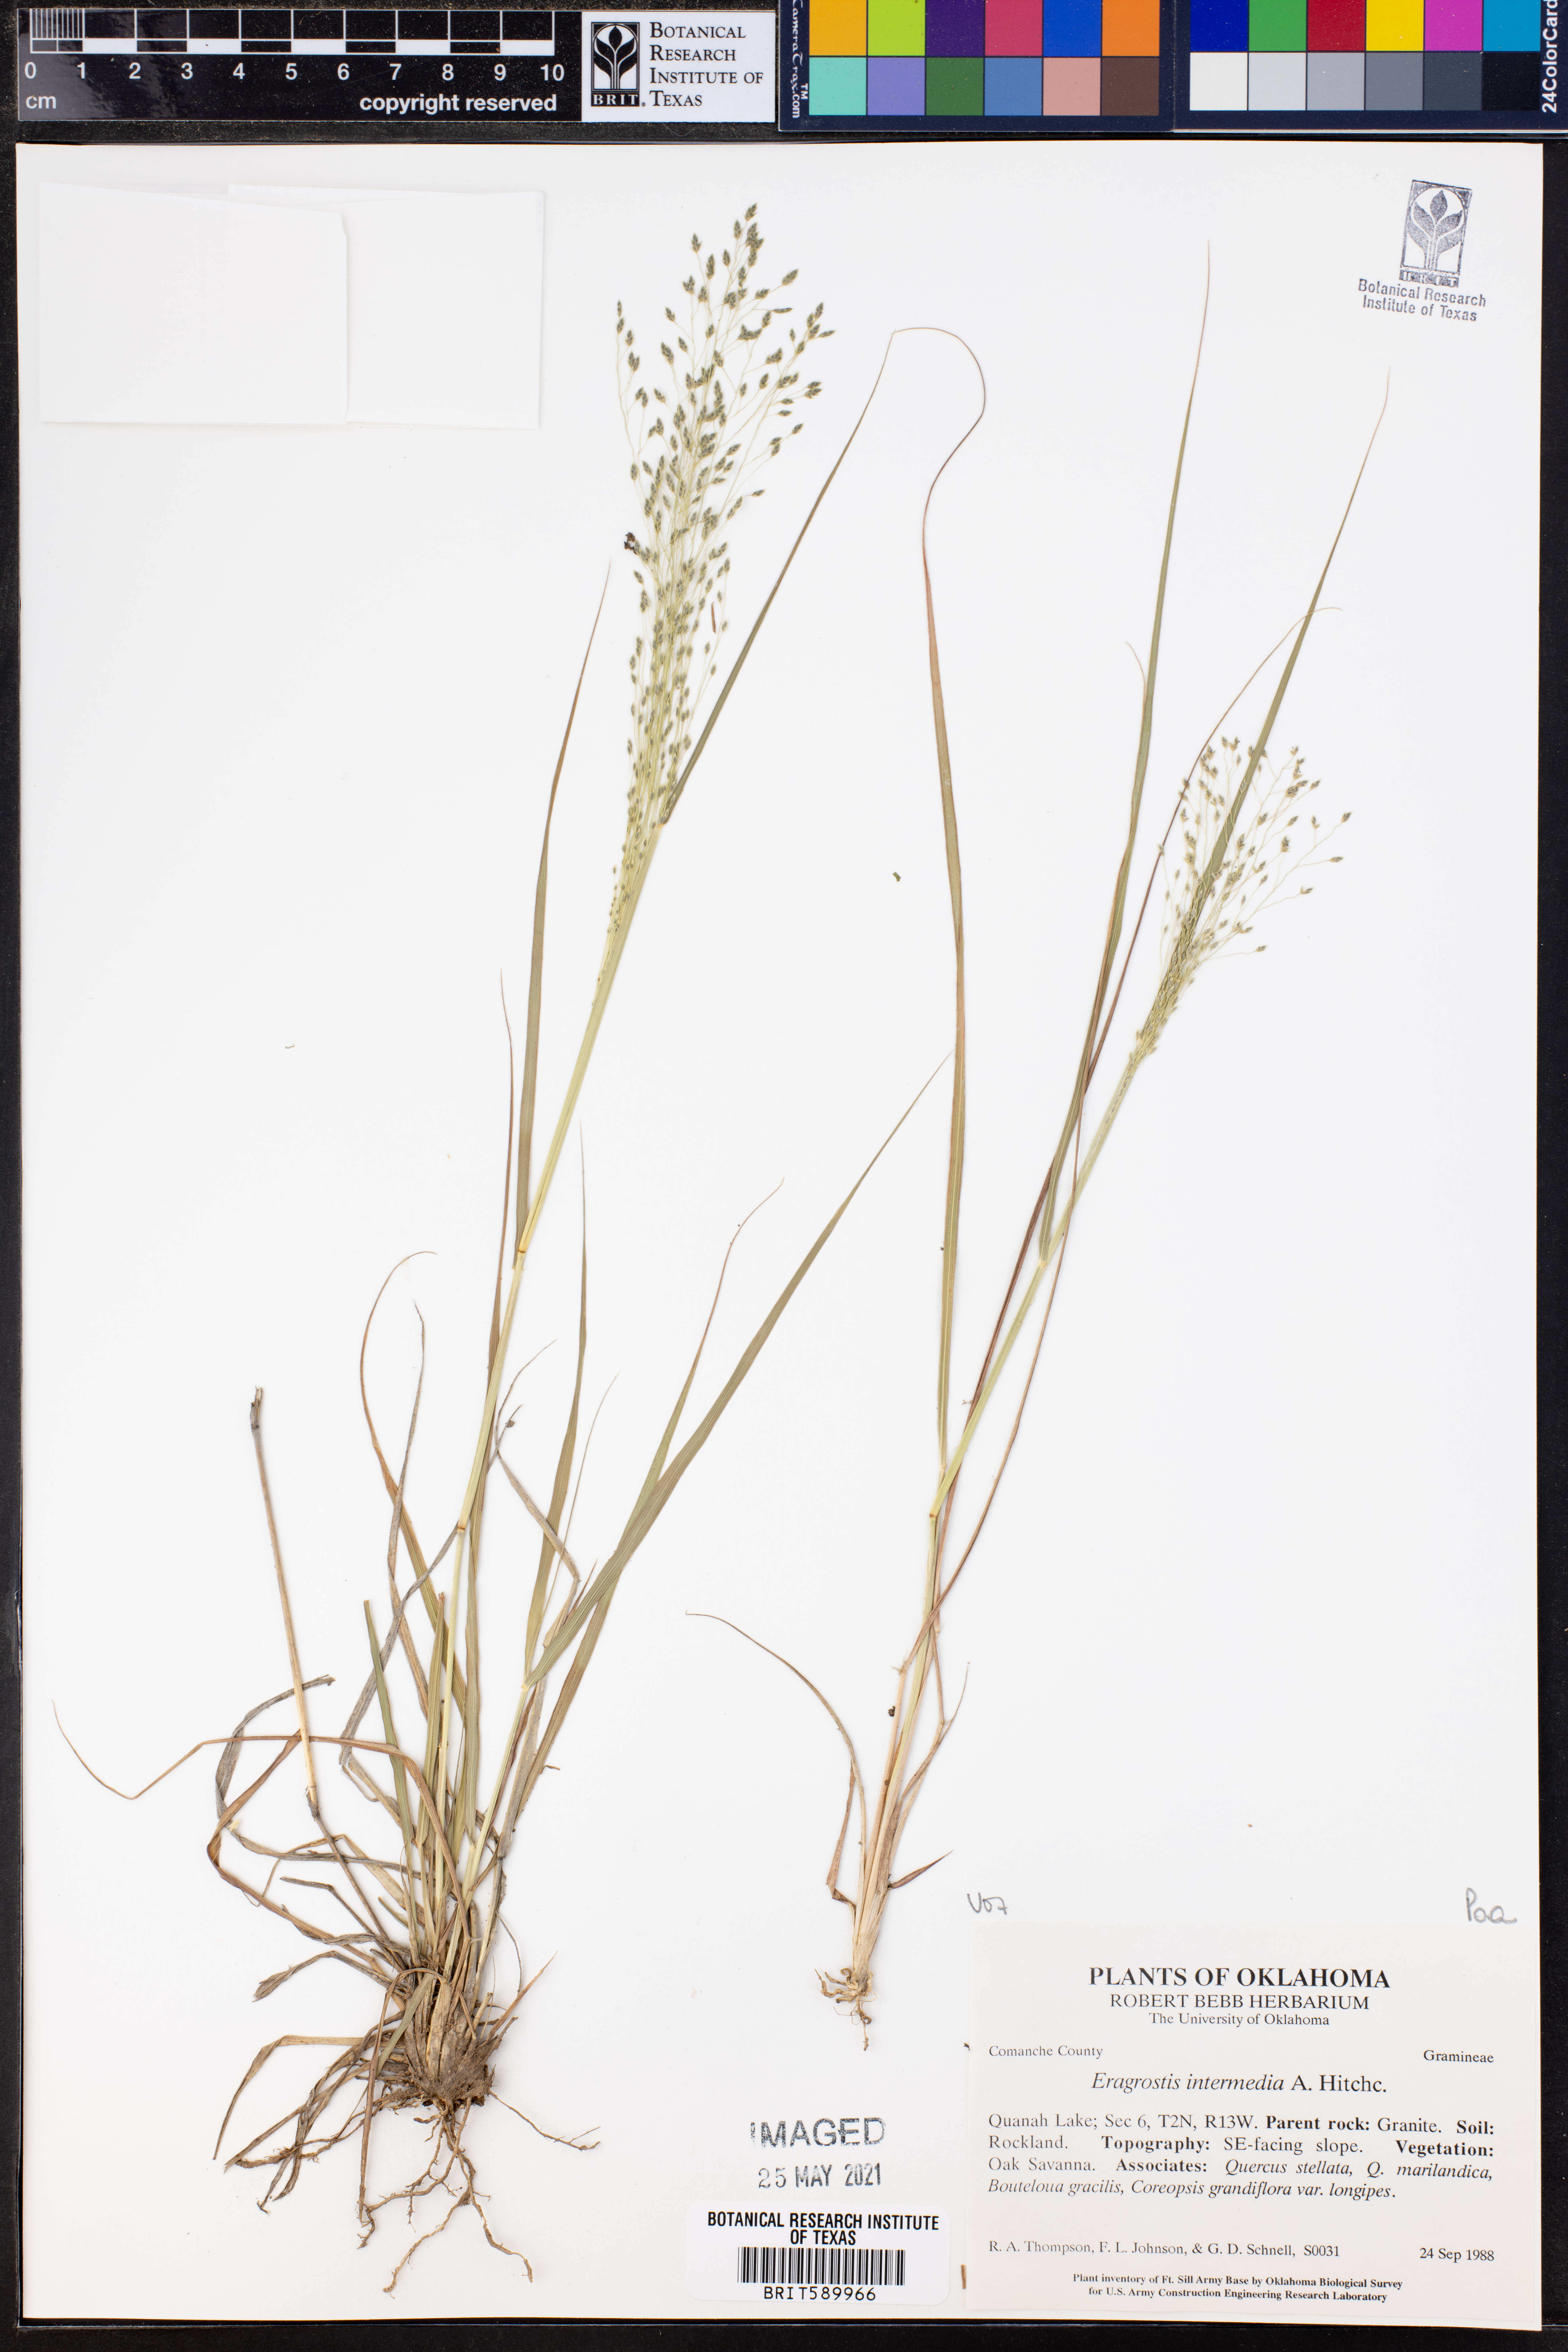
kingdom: Plantae
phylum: Tracheophyta
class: Liliopsida
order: Poales
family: Poaceae
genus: Eragrostis
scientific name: Eragrostis intermedia
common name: Plains love grass
